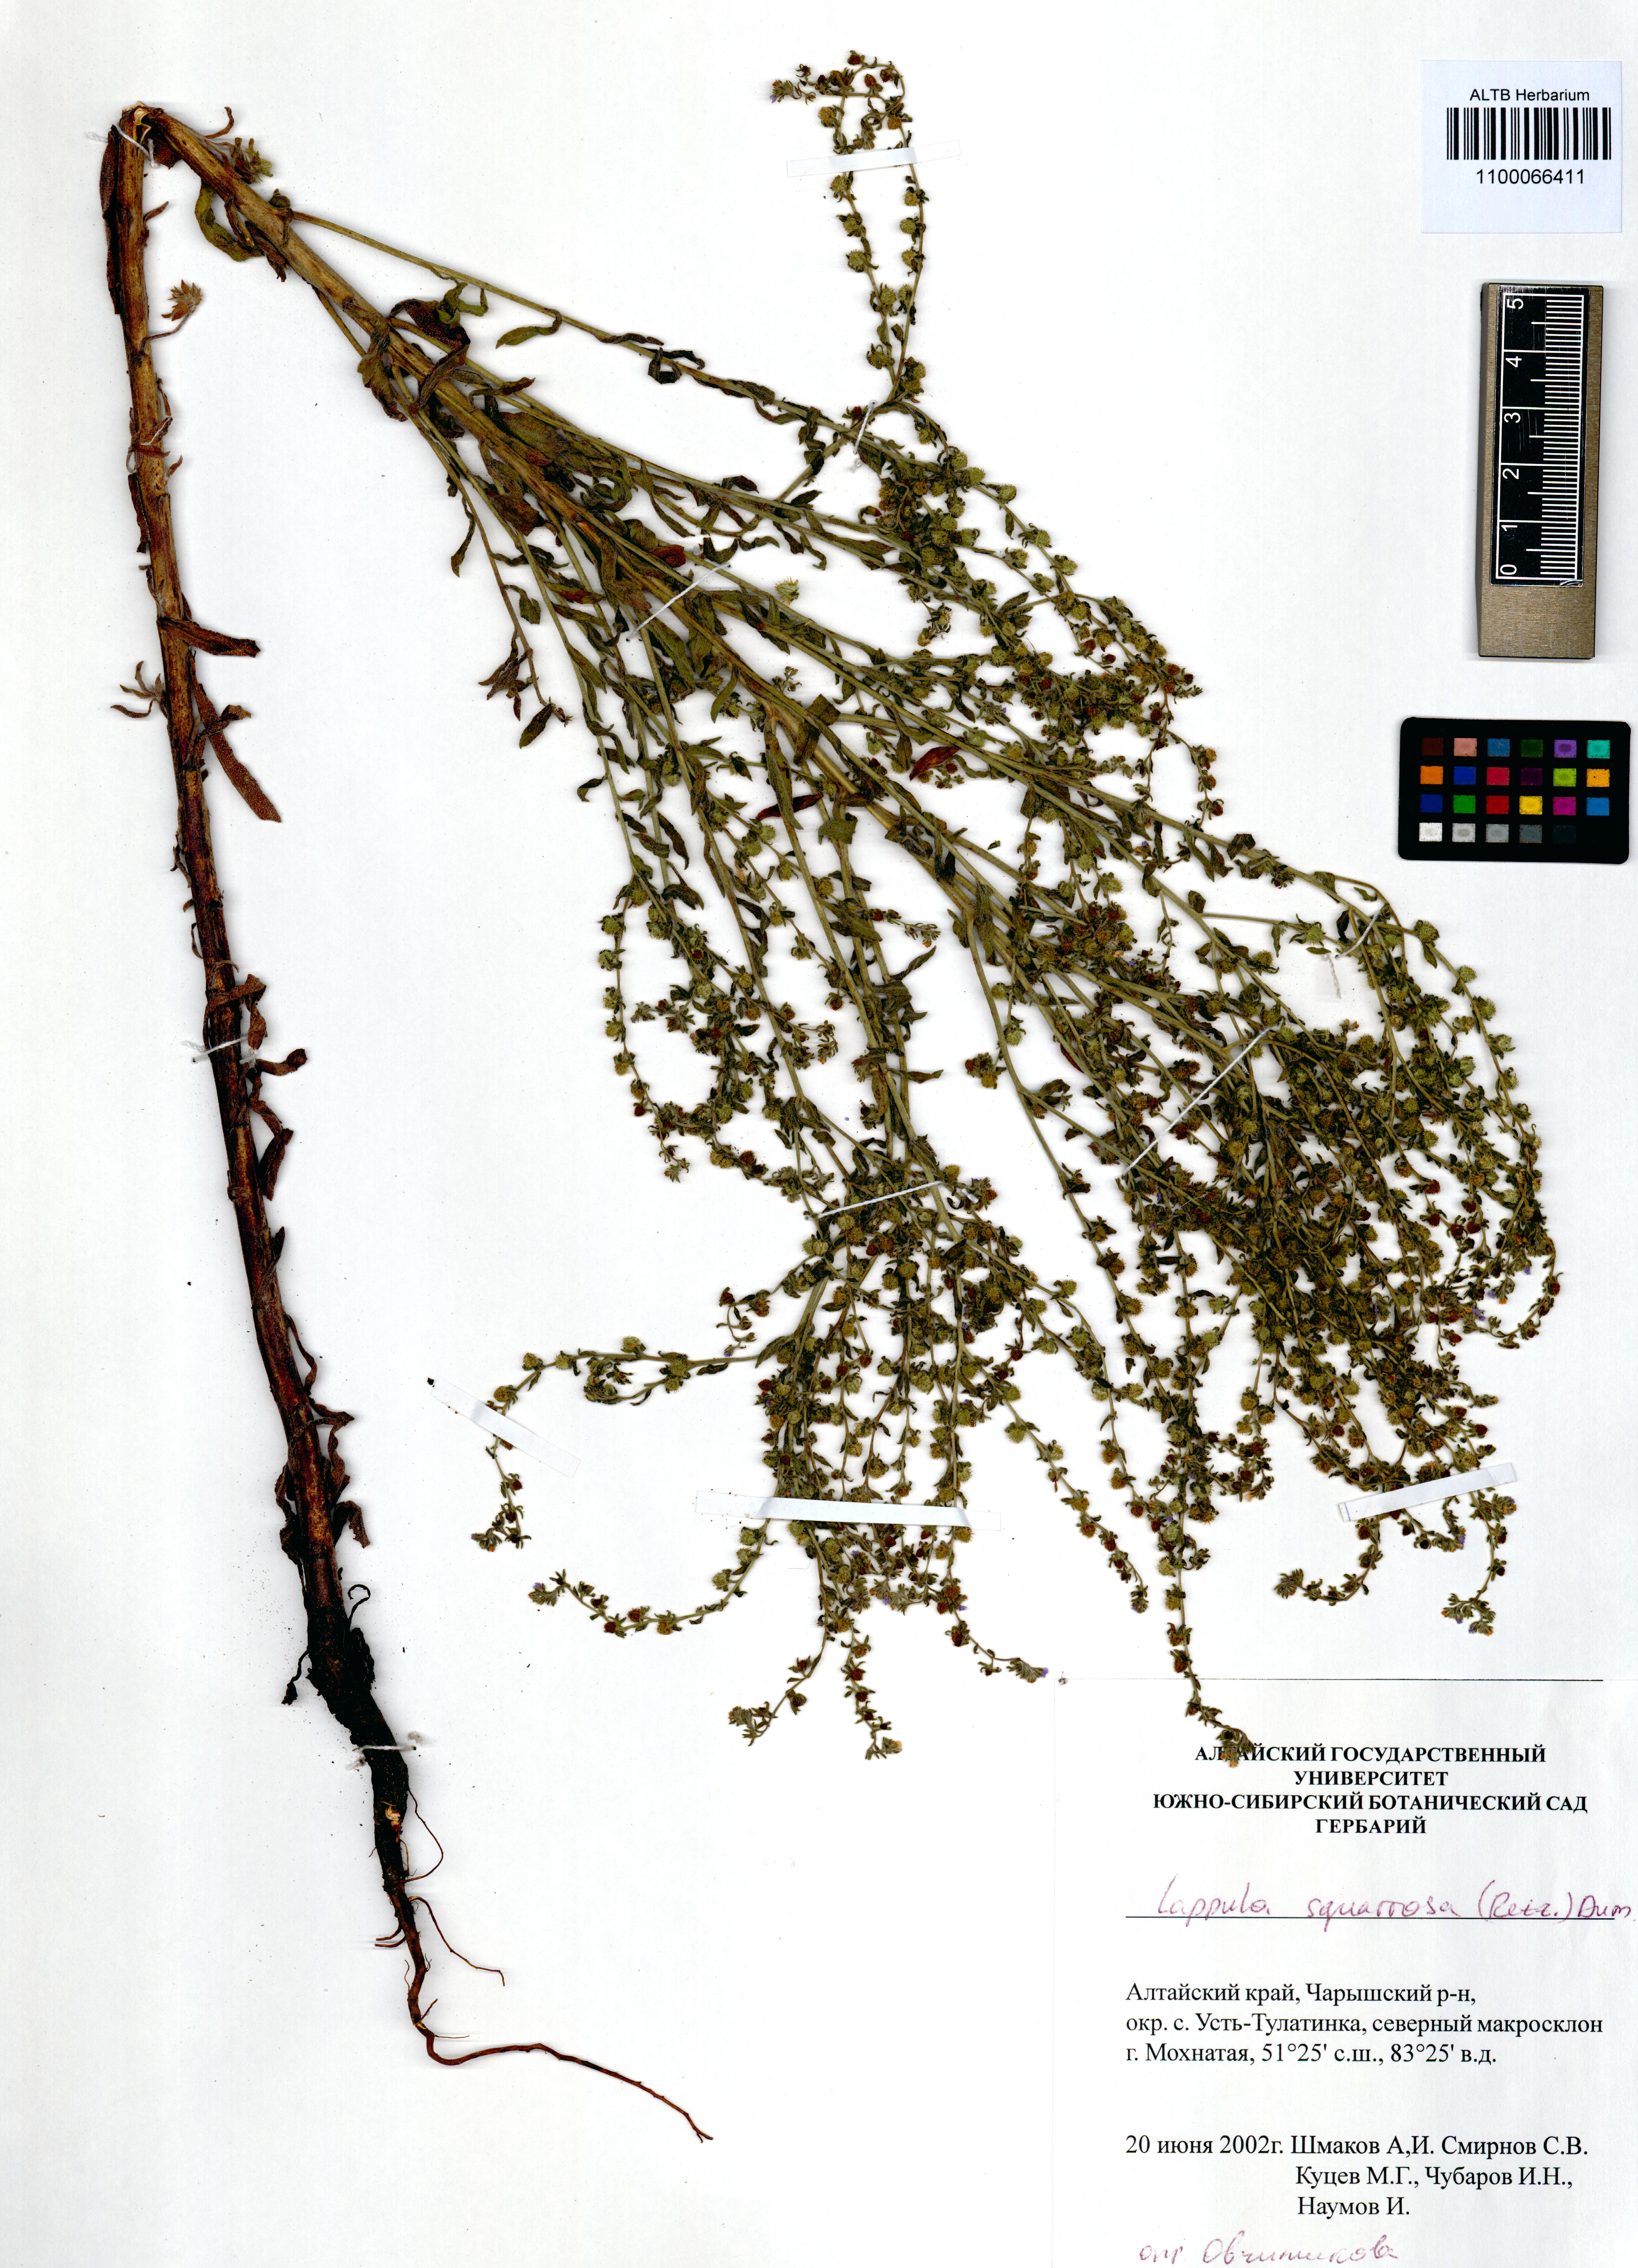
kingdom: Plantae
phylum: Tracheophyta
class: Magnoliopsida
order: Boraginales
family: Boraginaceae
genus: Lappula
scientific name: Lappula squarrosa
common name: European stickseed
